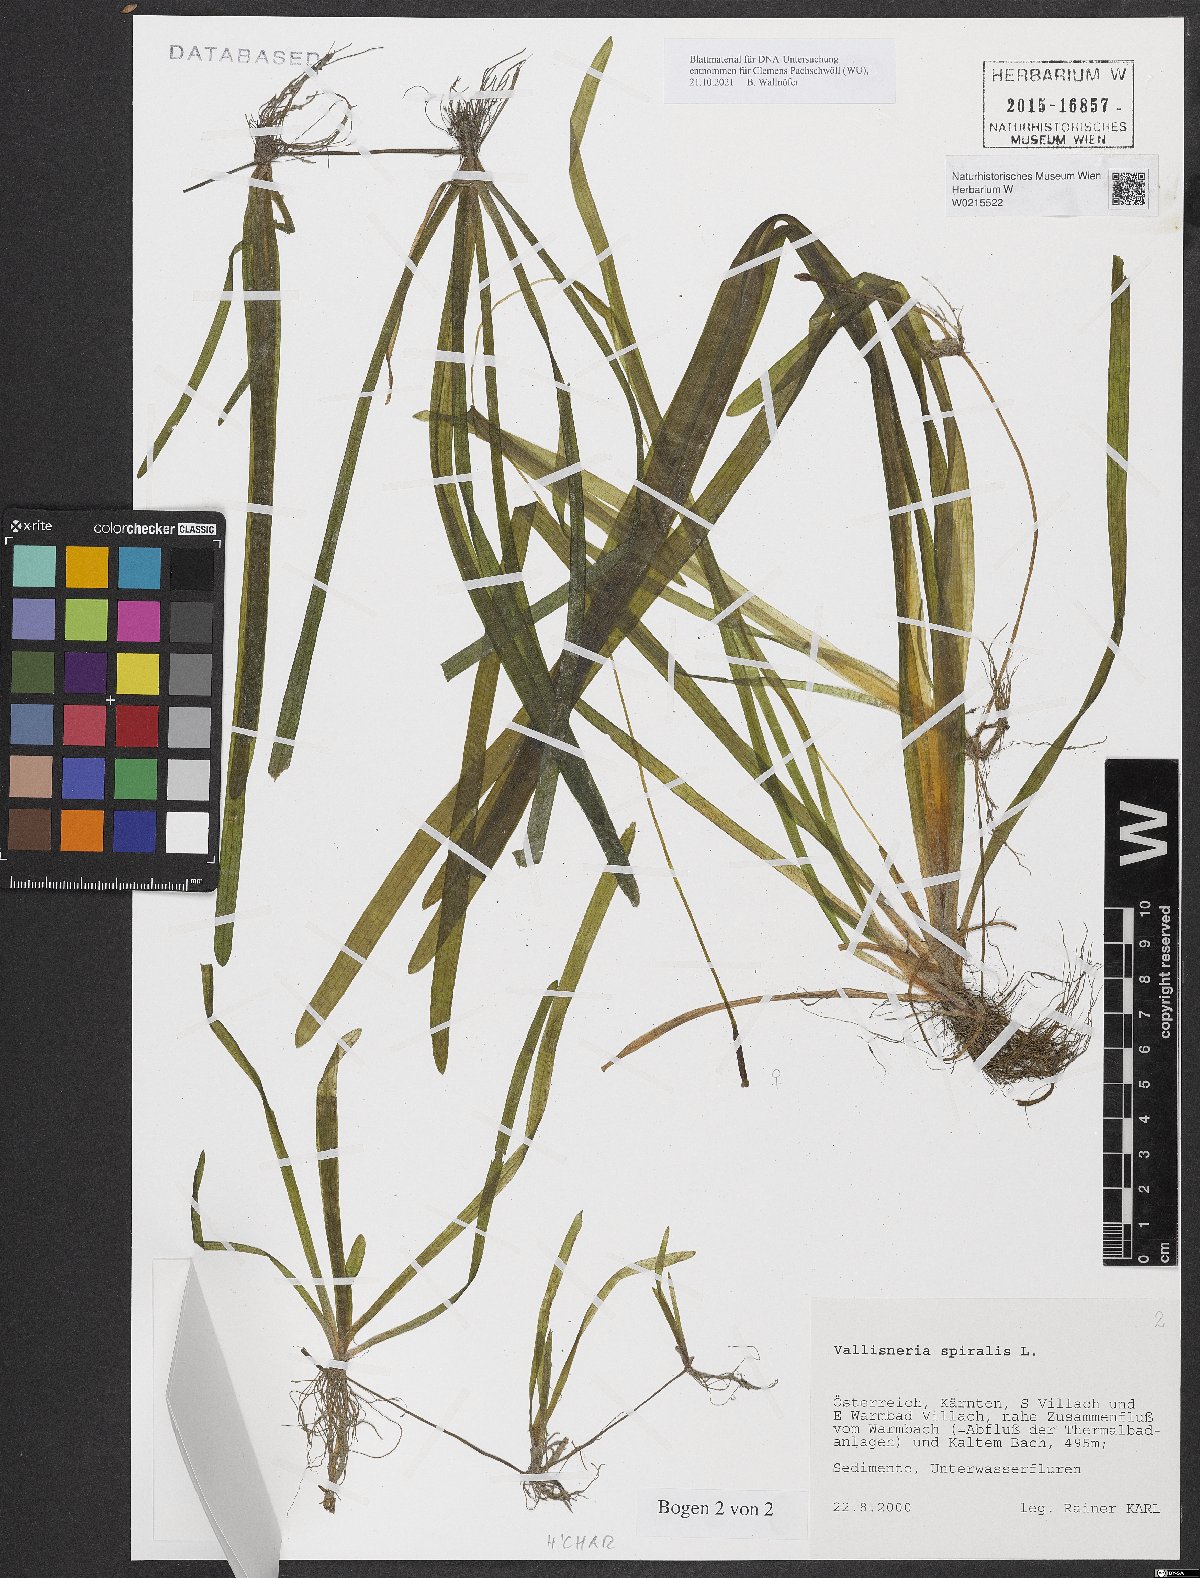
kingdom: Plantae
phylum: Tracheophyta
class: Liliopsida
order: Alismatales
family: Hydrocharitaceae
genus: Vallisneria
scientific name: Vallisneria spiralis
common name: Tapegrass
